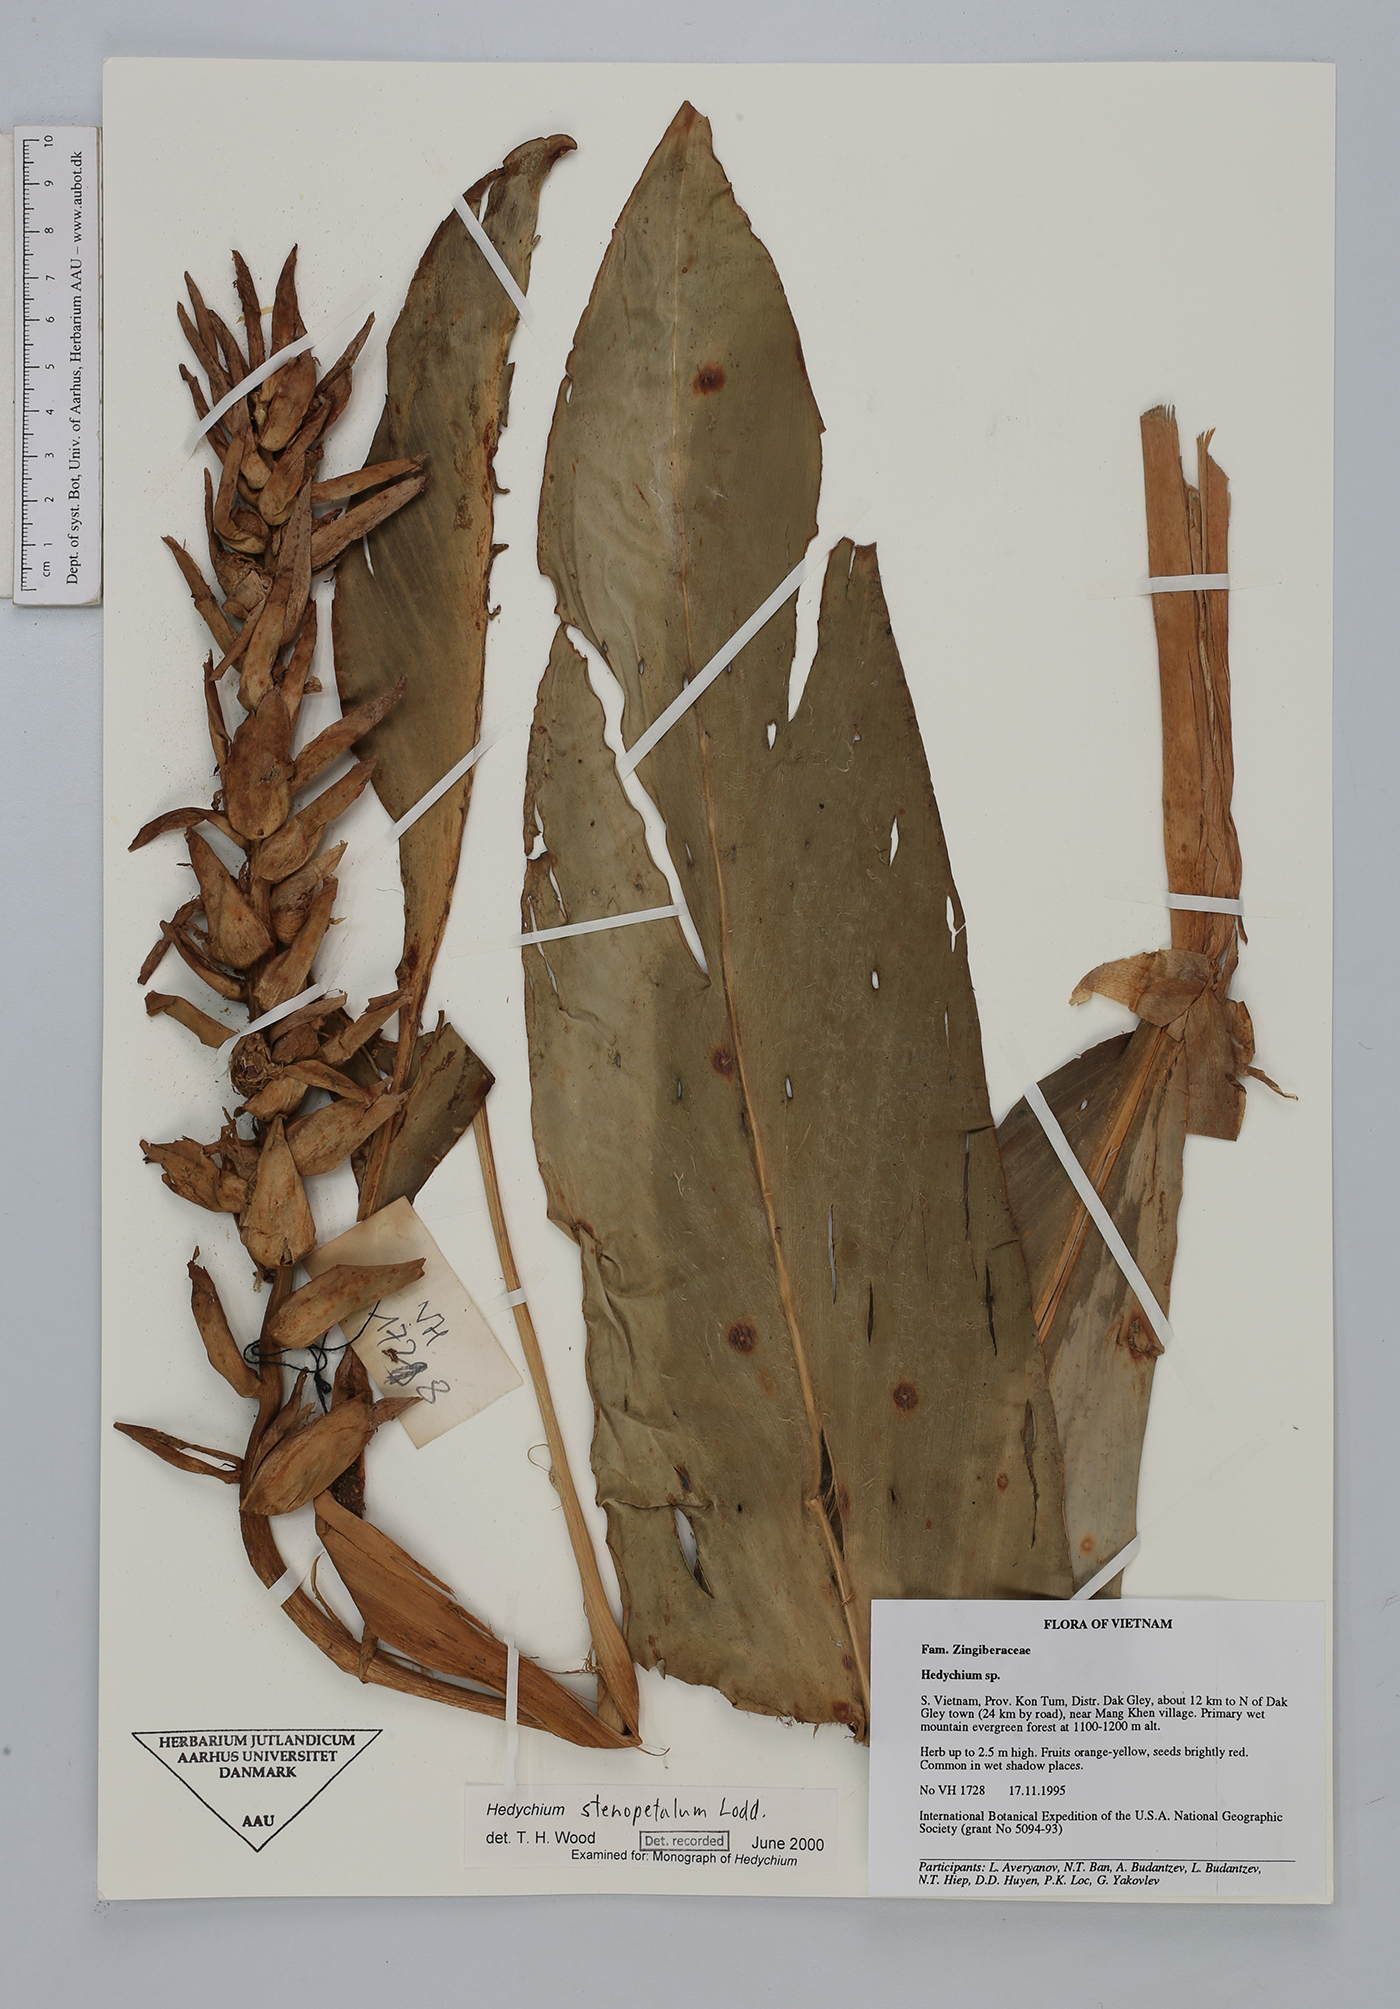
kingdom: Plantae
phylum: Tracheophyta
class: Liliopsida
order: Zingiberales
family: Zingiberaceae
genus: Hedychium
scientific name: Hedychium stenopetalum
